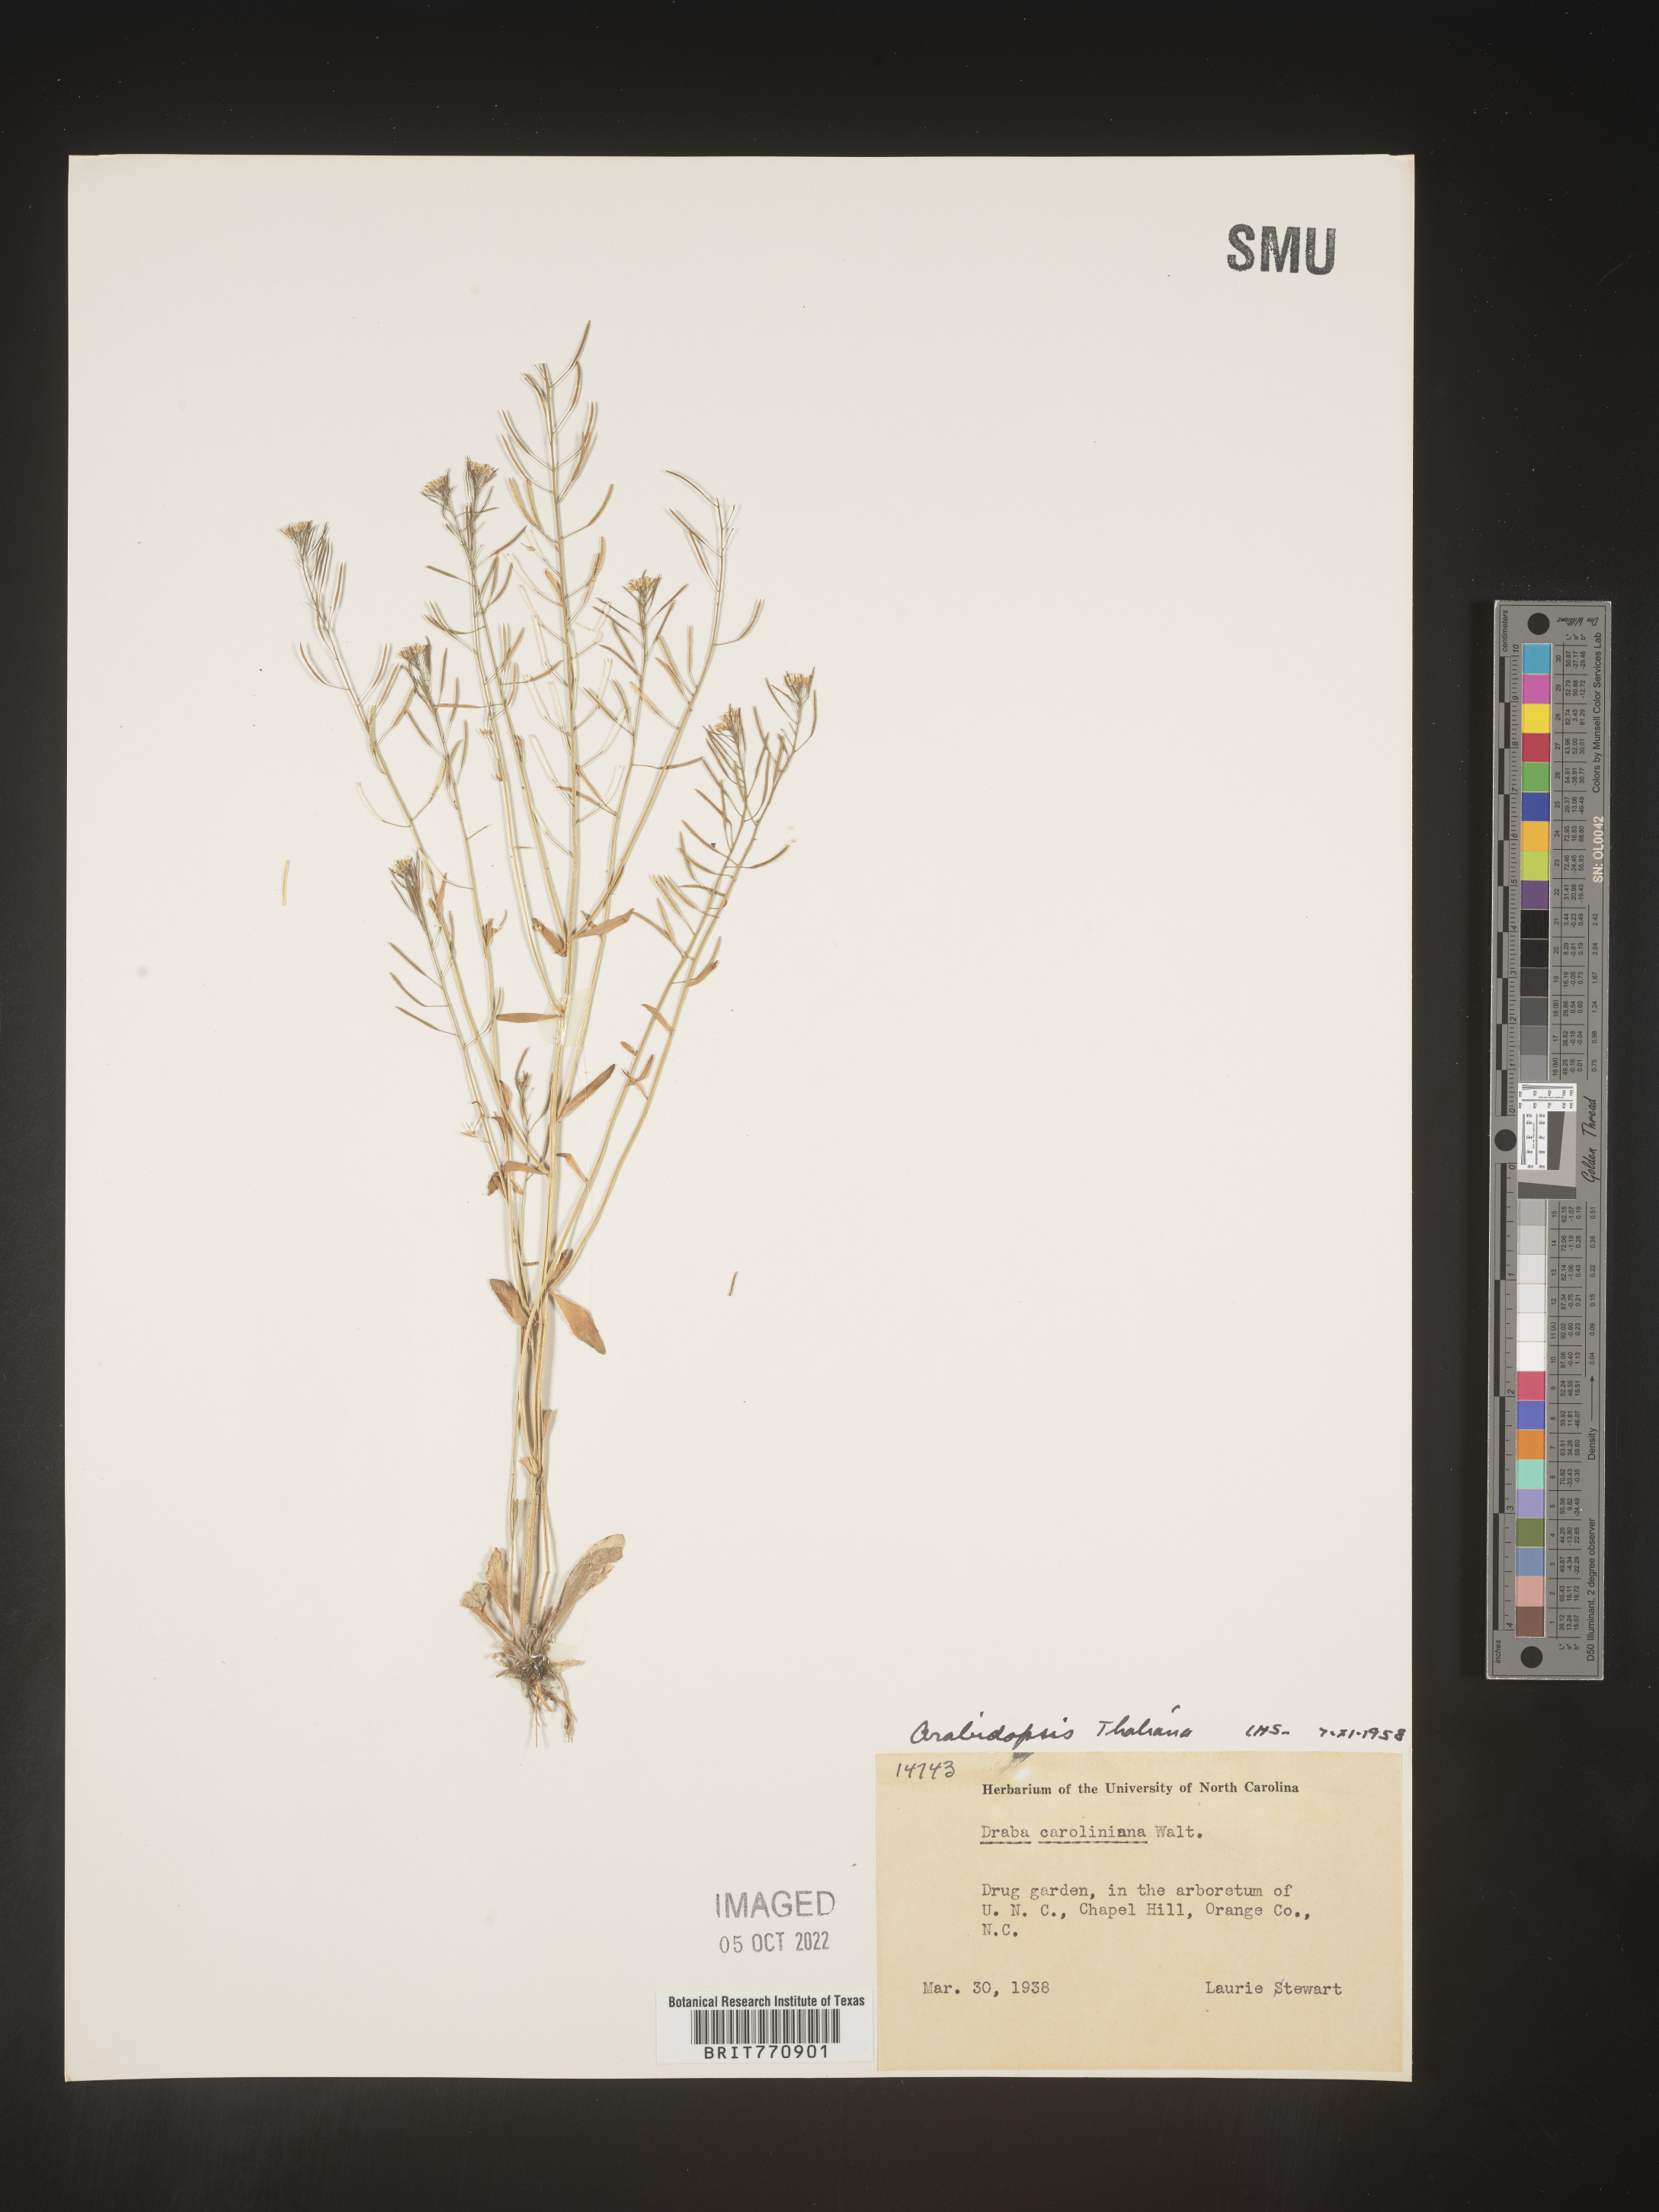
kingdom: Plantae
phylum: Tracheophyta
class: Magnoliopsida
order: Brassicales
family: Brassicaceae
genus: Arabidopsis
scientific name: Arabidopsis thaliana
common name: Thale cress
